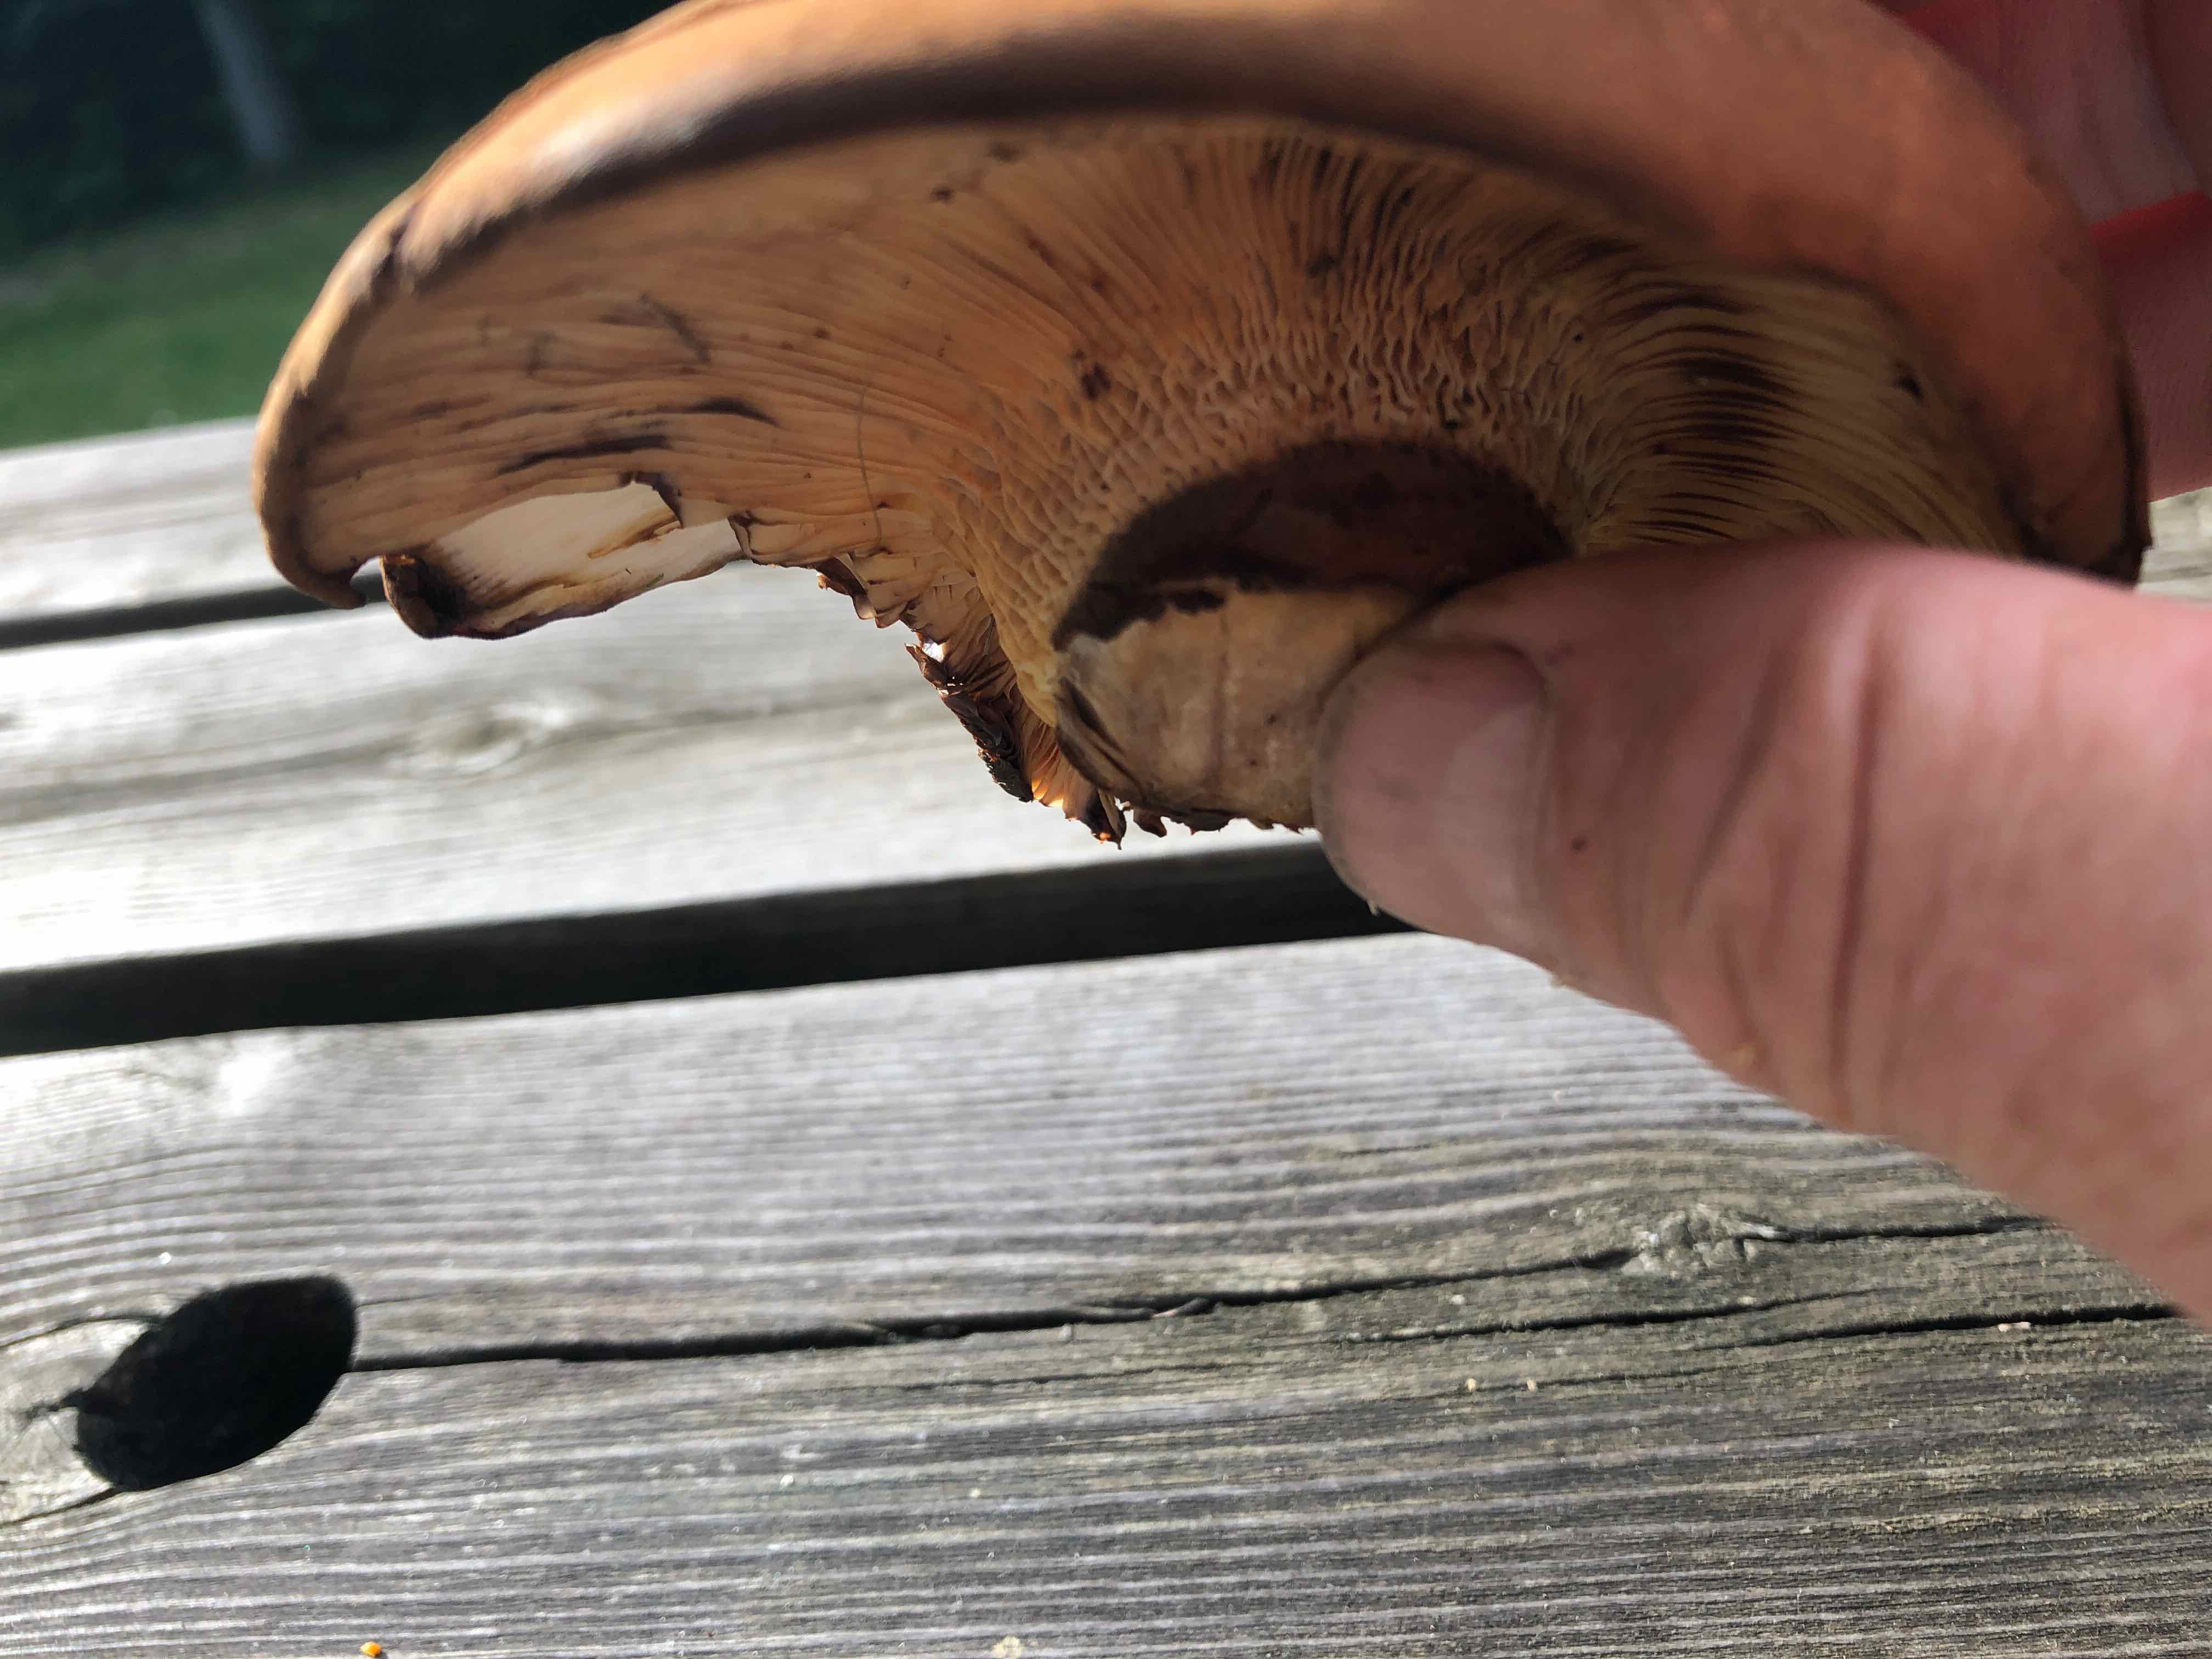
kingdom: Fungi
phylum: Basidiomycota
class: Agaricomycetes
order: Boletales
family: Tapinellaceae
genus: Tapinella
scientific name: Tapinella atrotomentosa
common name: sortfiltet viftesvamp
